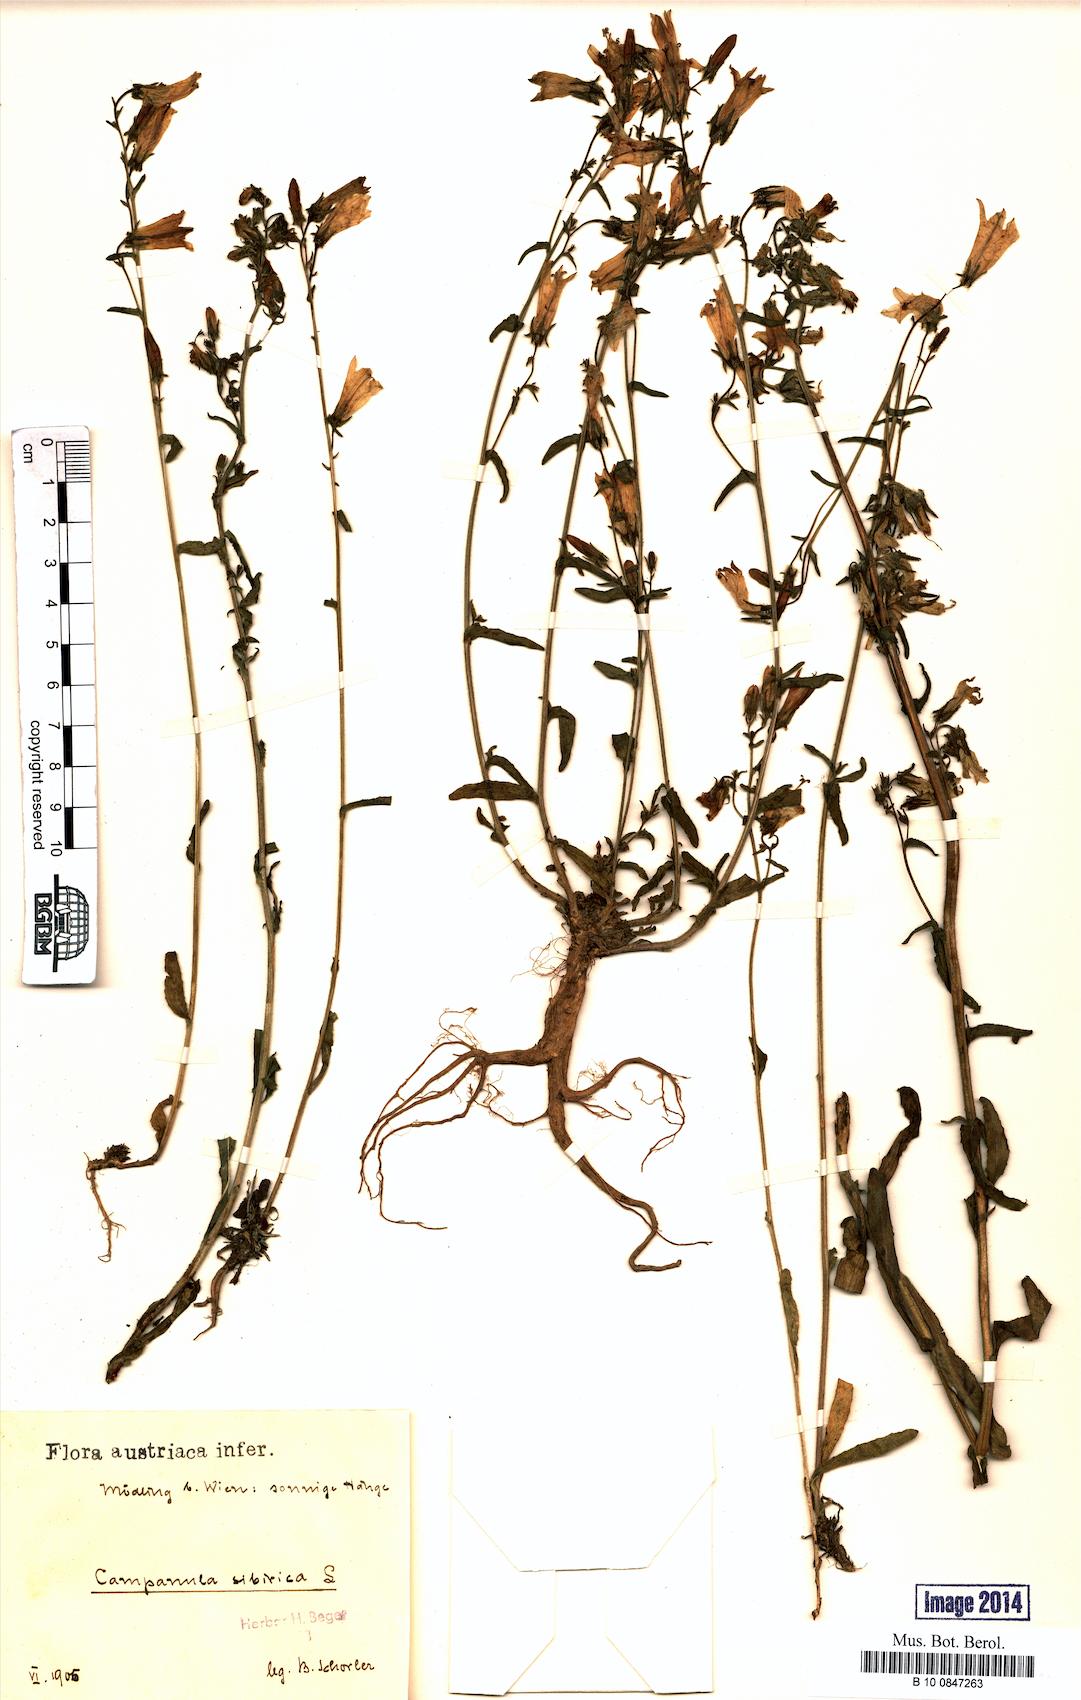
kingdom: Plantae
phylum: Tracheophyta
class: Magnoliopsida
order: Asterales
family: Campanulaceae
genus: Campanula
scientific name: Campanula sibirica
